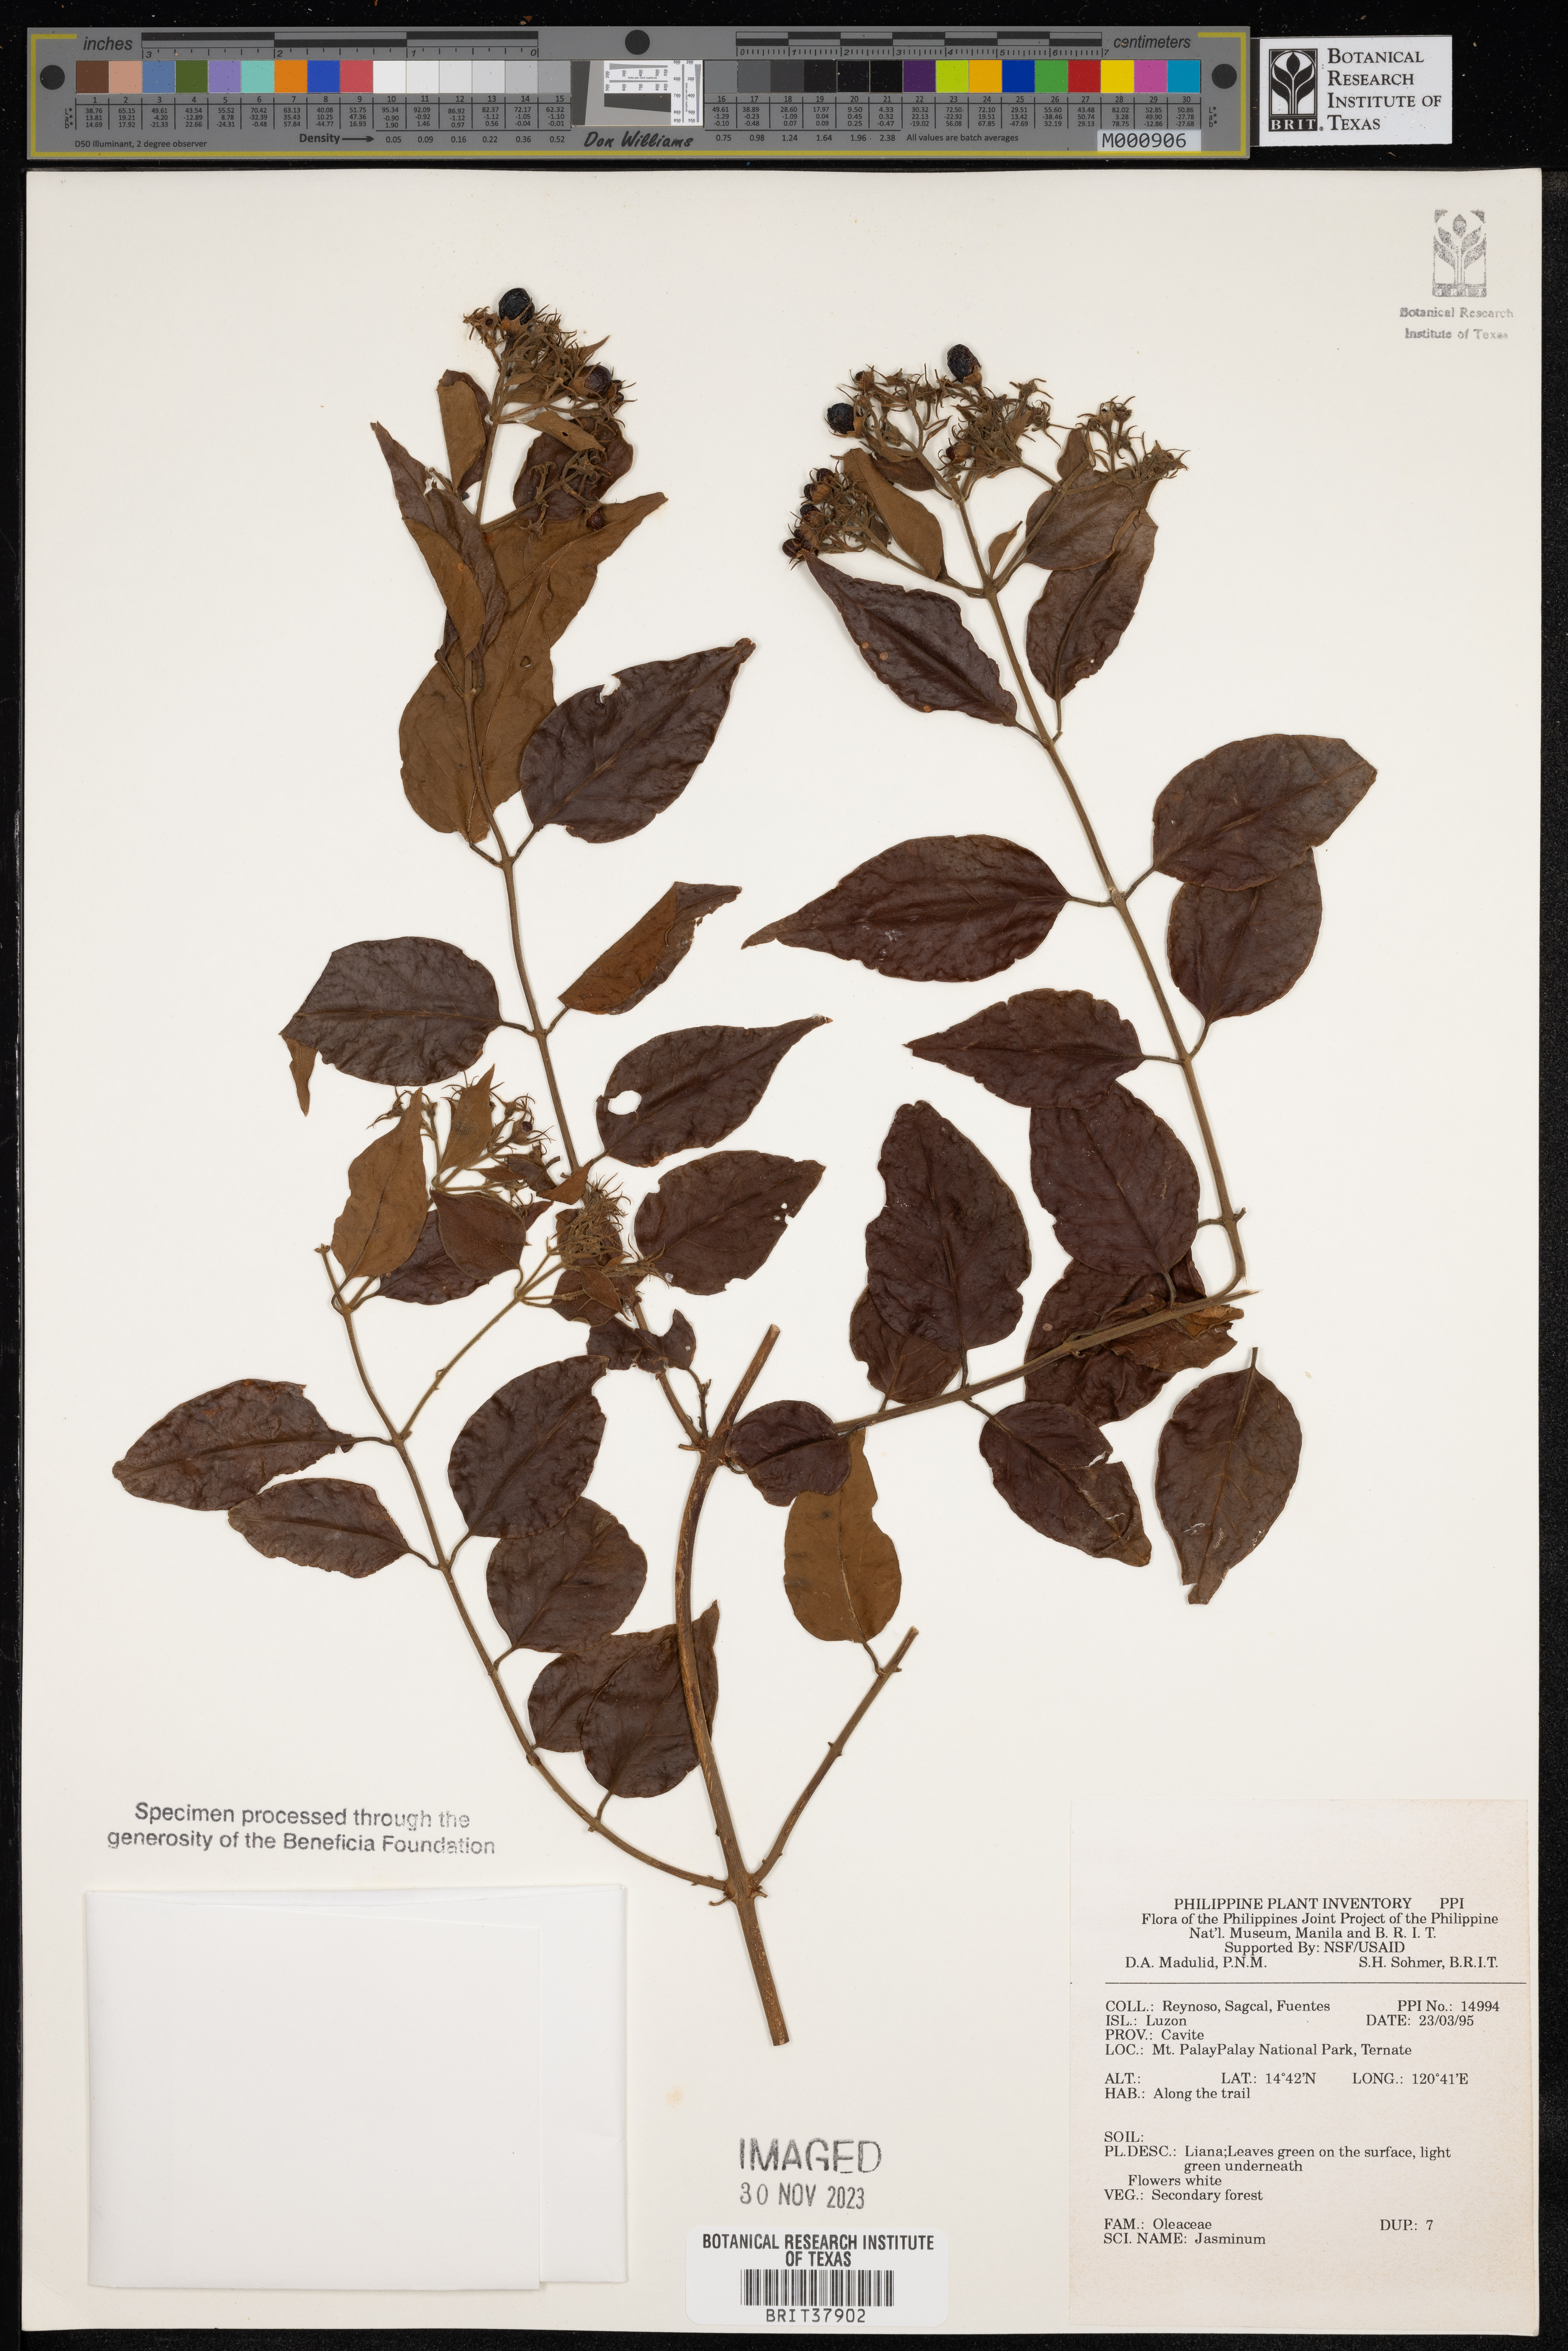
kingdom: Plantae
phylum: Tracheophyta
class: Magnoliopsida
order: Lamiales
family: Oleaceae
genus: Jasminum
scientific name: Jasminum
